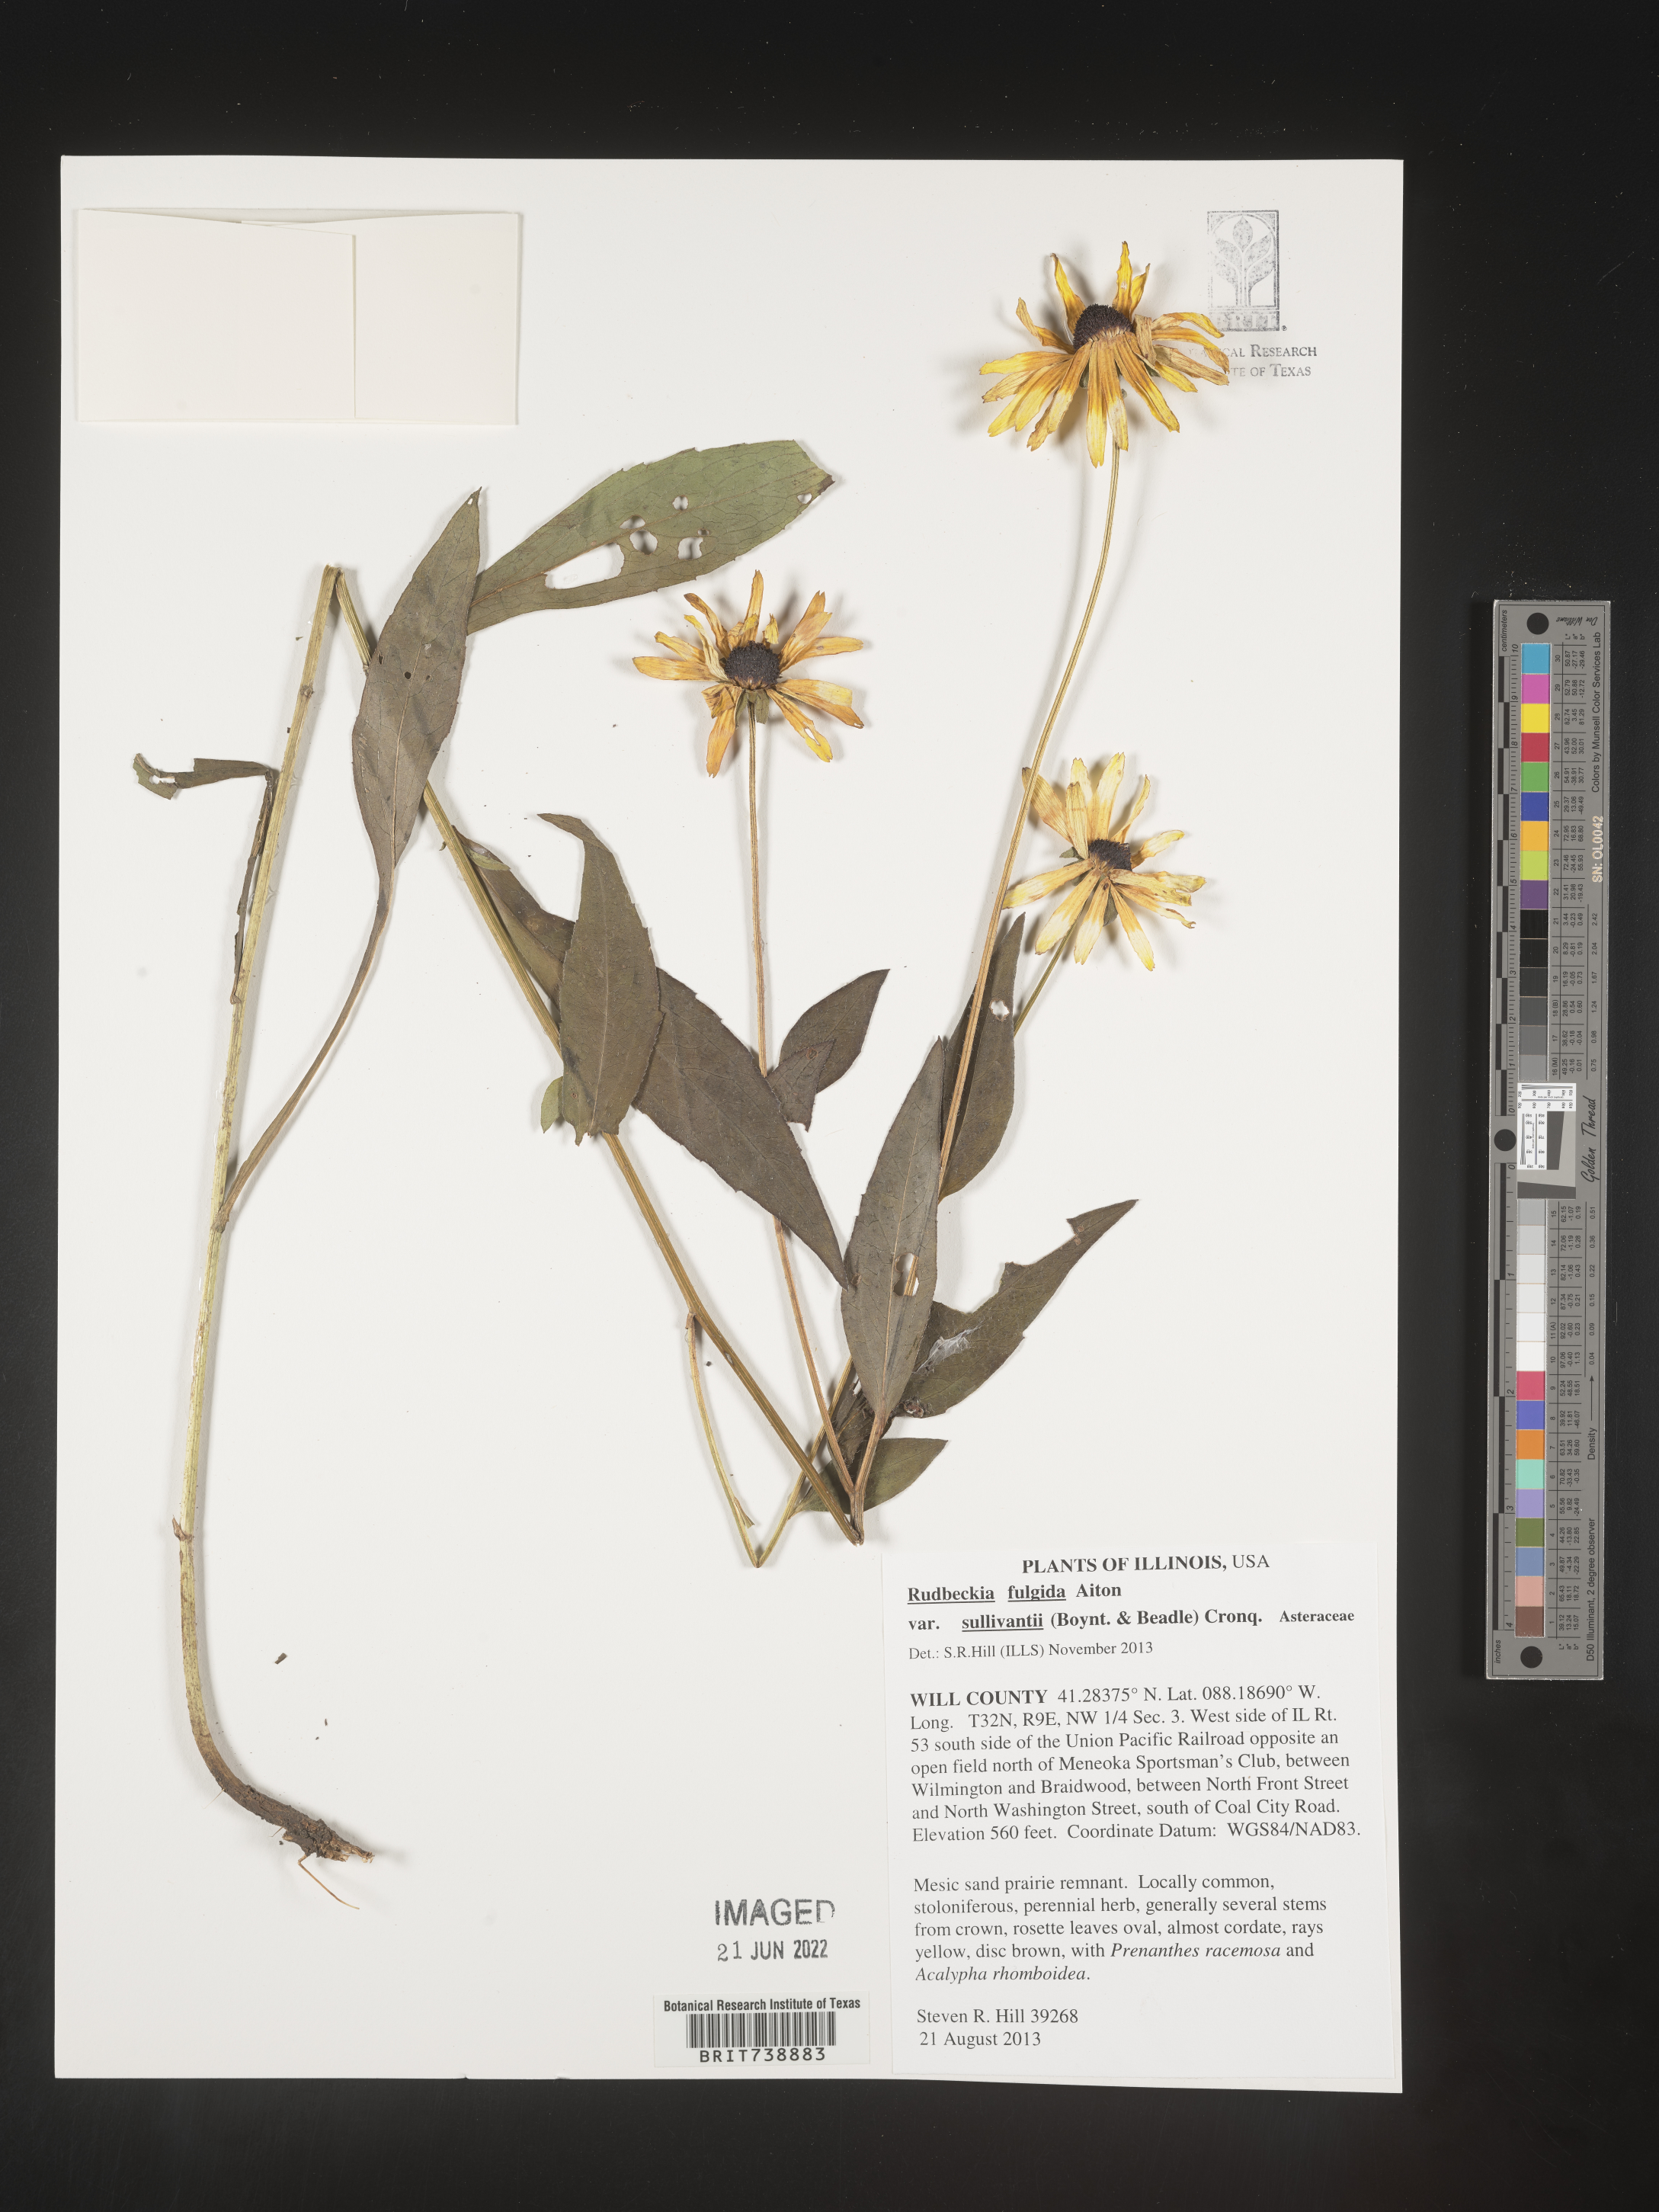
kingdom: Plantae
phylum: Tracheophyta
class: Magnoliopsida
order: Asterales
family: Asteraceae
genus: Rudbeckia
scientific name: Rudbeckia fulgida
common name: Perennial coneflower
